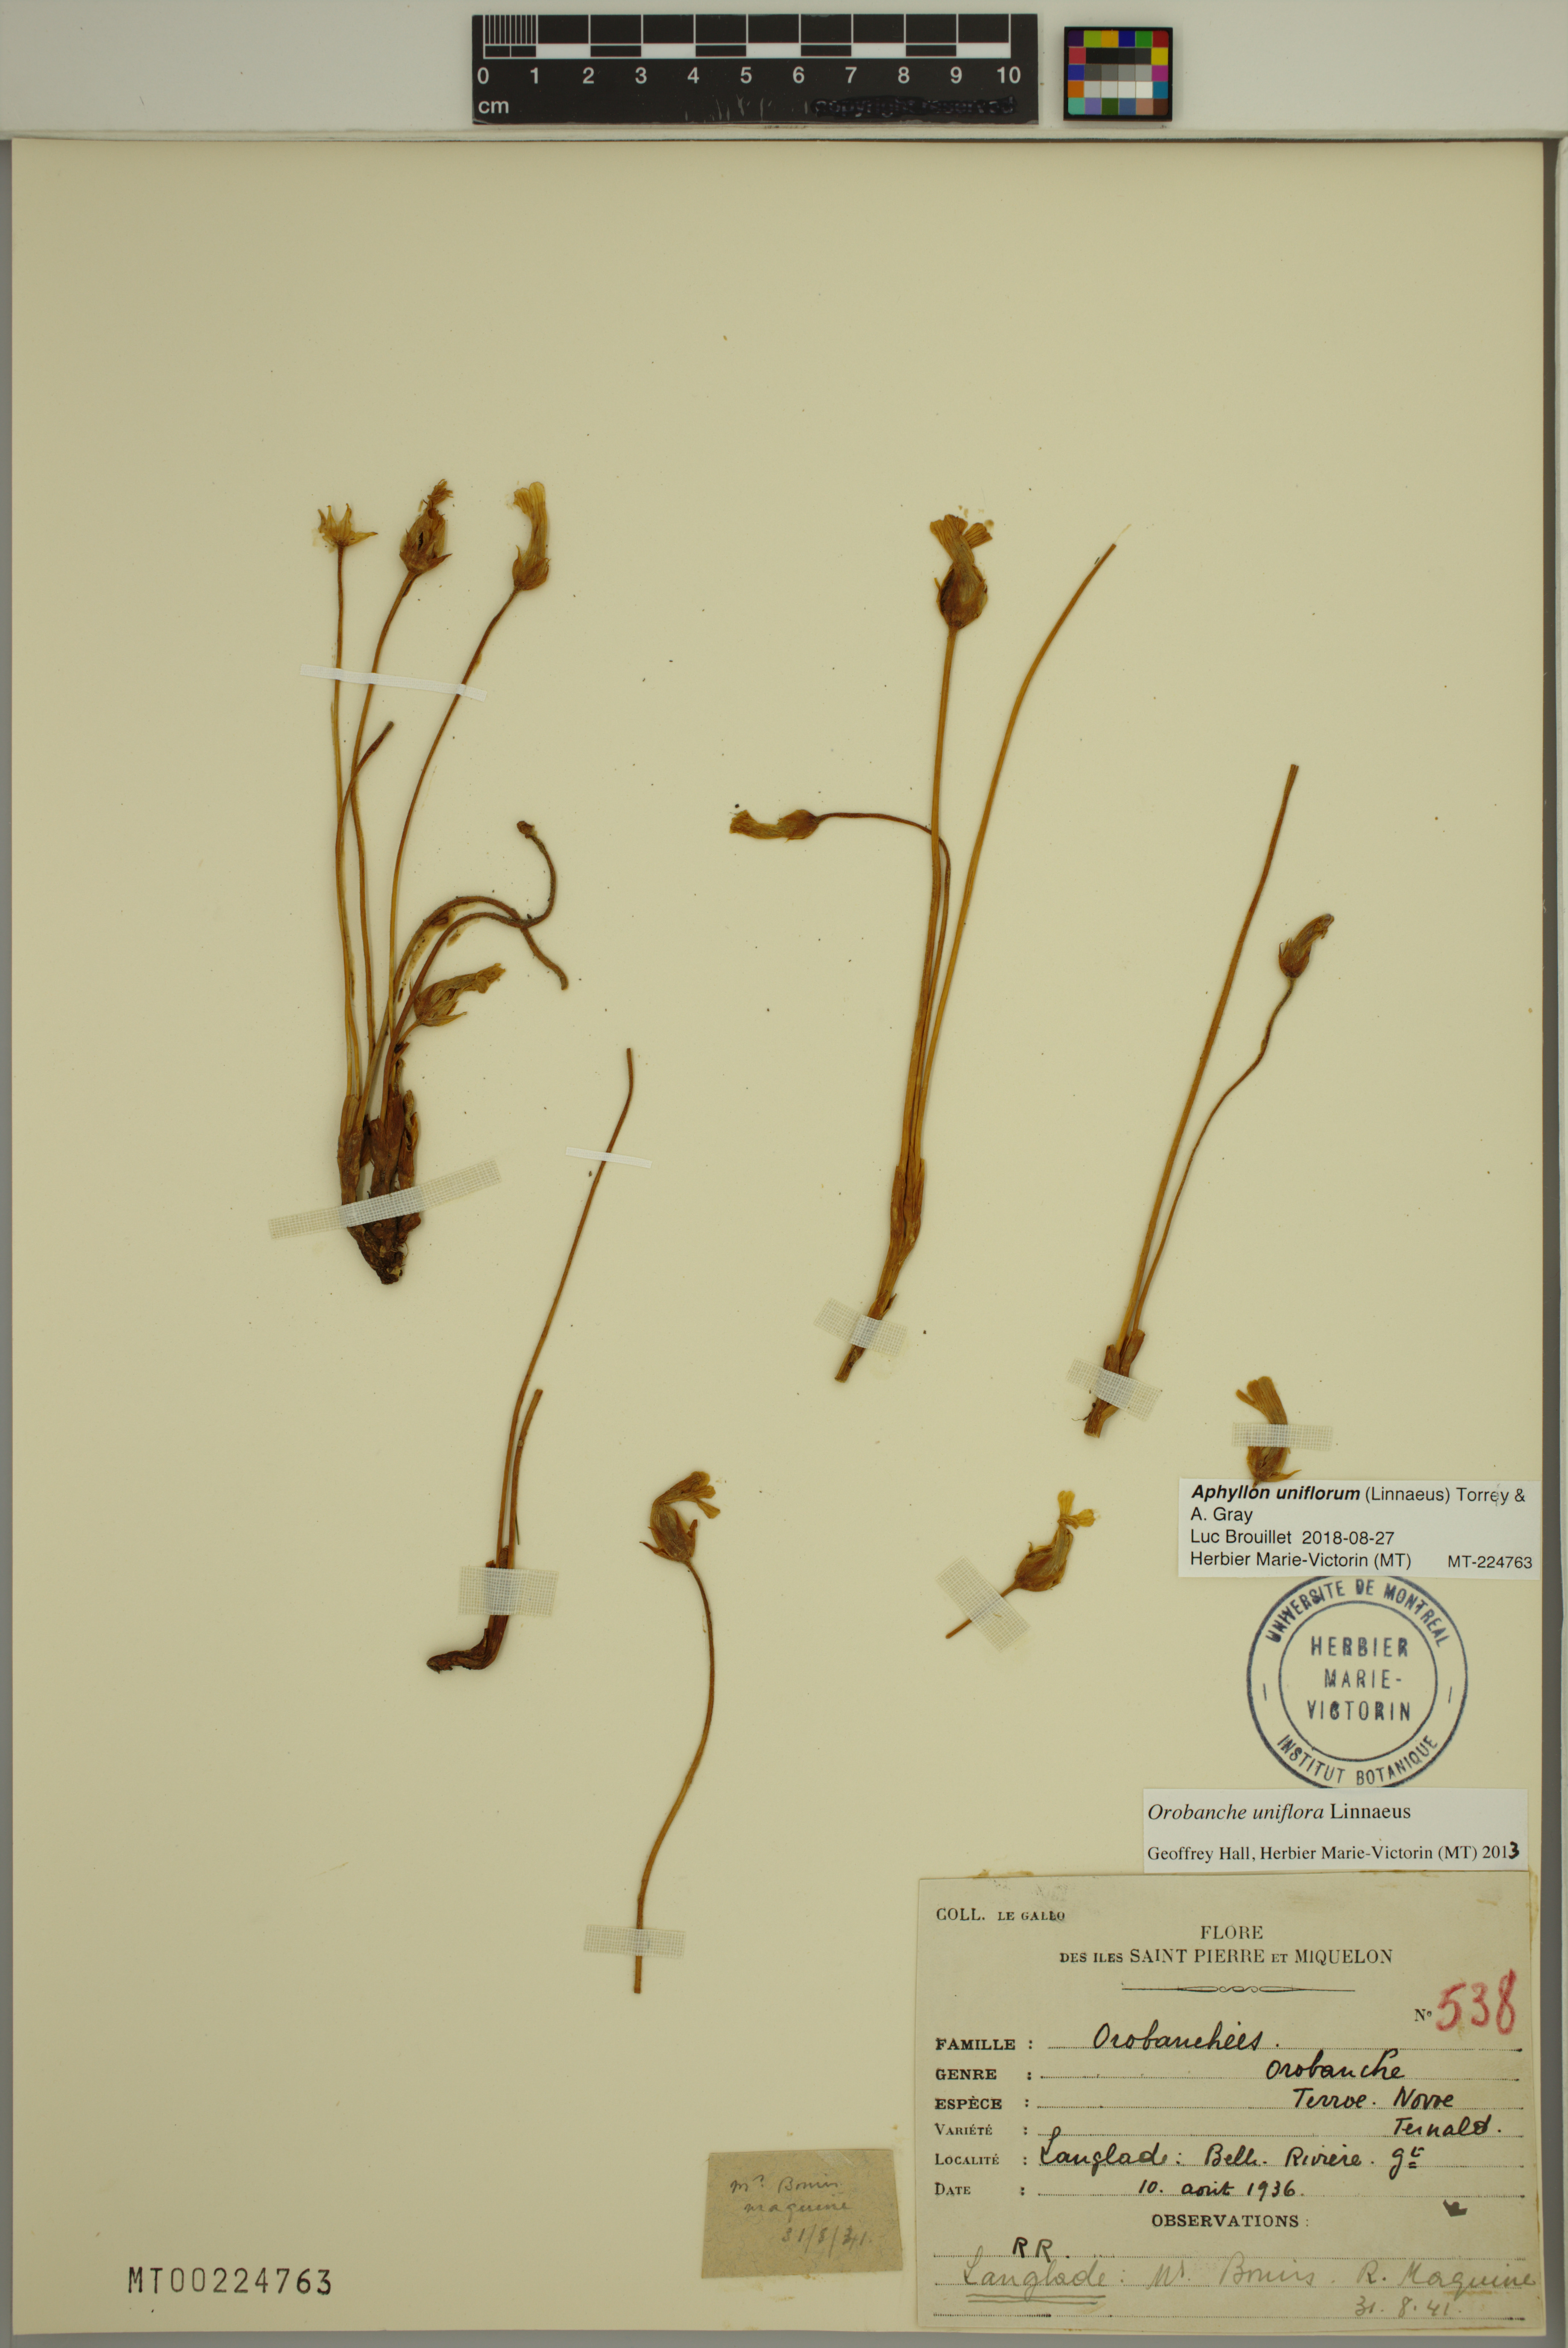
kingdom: Plantae
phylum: Tracheophyta
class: Magnoliopsida
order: Lamiales
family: Orobanchaceae
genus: Aphyllon
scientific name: Aphyllon uniflorum
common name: One-flowered broomrape
